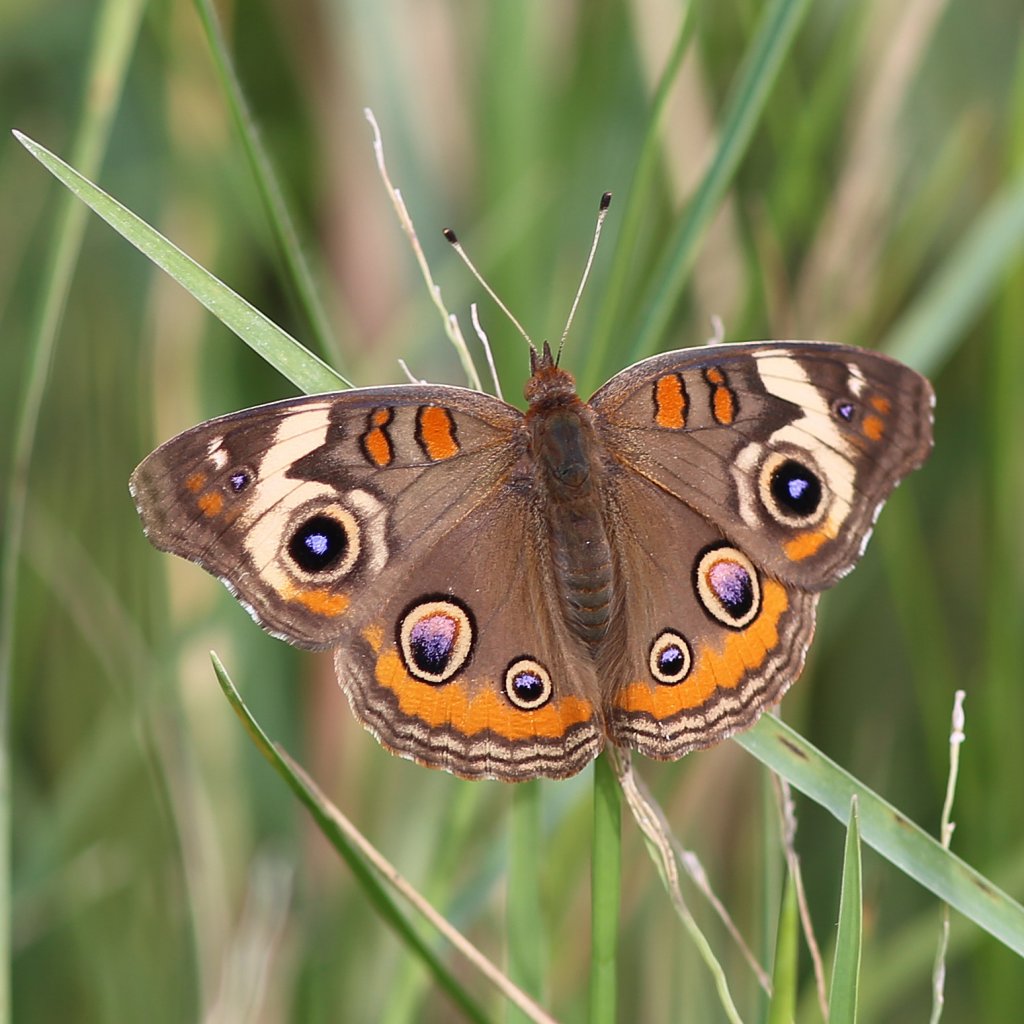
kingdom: Animalia
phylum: Arthropoda
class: Insecta
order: Lepidoptera
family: Nymphalidae
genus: Junonia
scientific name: Junonia coenia
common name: Common Buckeye
